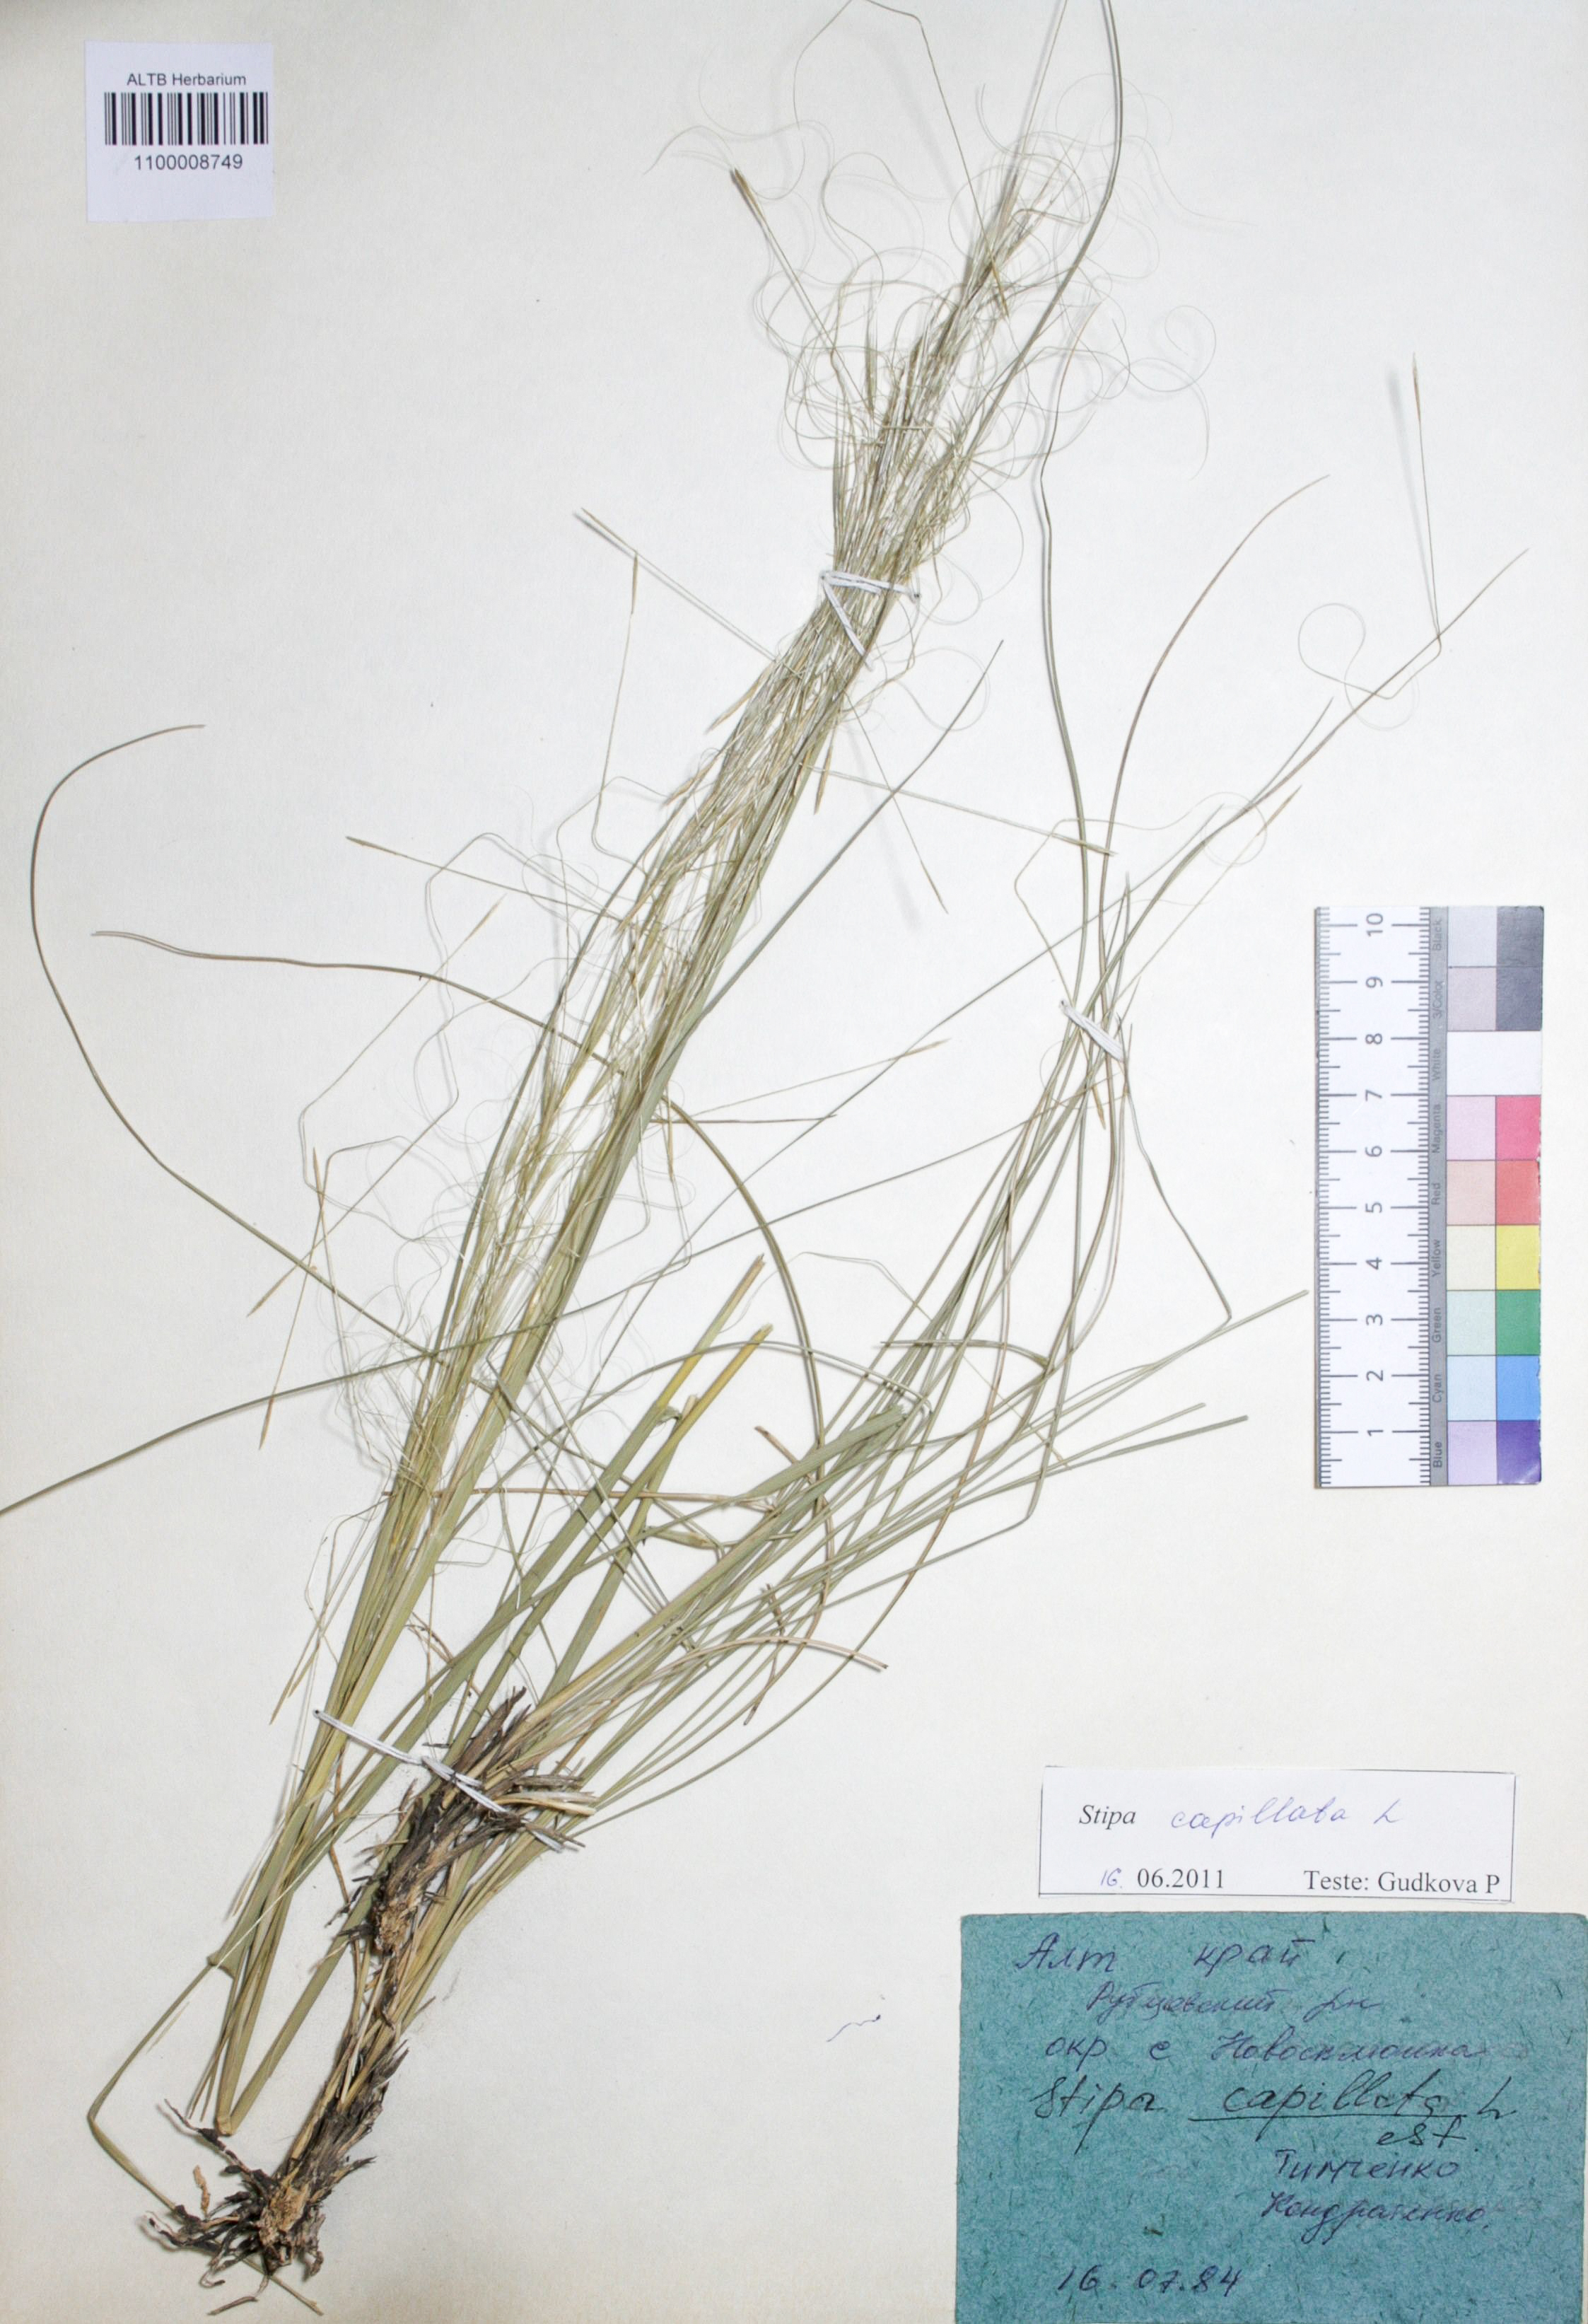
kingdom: Plantae
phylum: Tracheophyta
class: Liliopsida
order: Poales
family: Poaceae
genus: Stipa
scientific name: Stipa capillata
